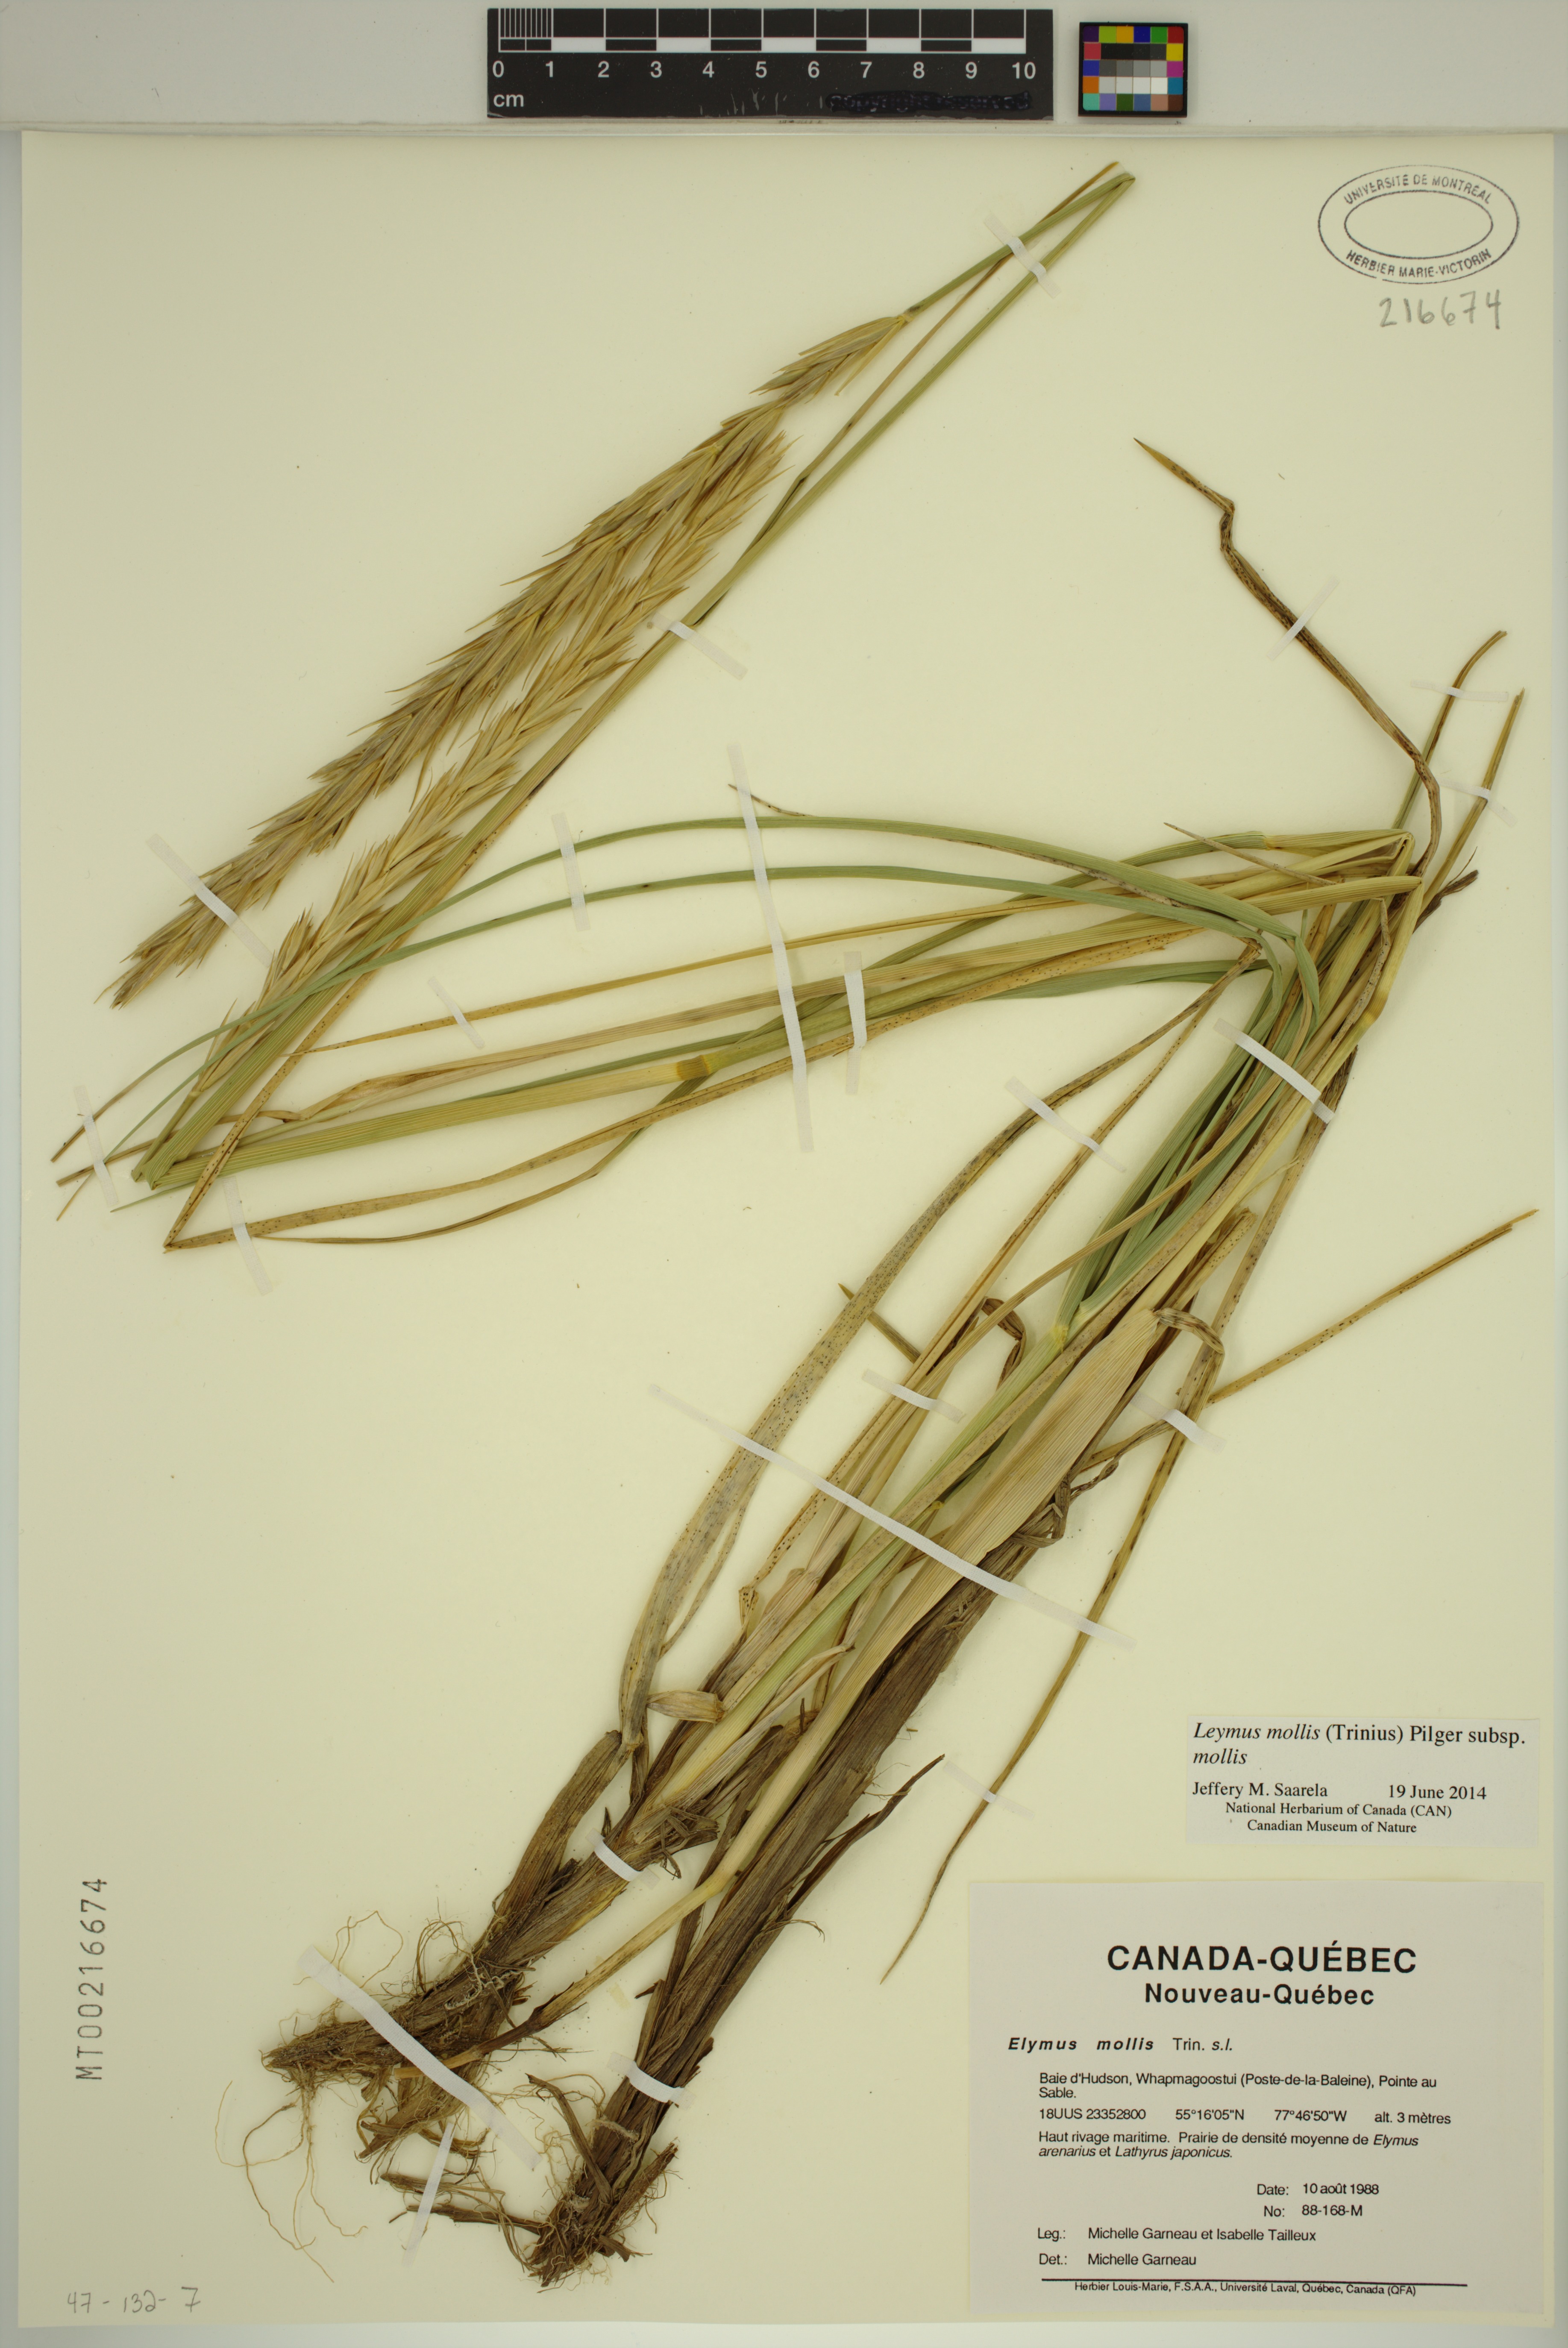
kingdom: Plantae
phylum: Tracheophyta
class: Liliopsida
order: Poales
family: Poaceae
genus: Leymus
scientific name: Leymus mollis
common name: American dune grass
